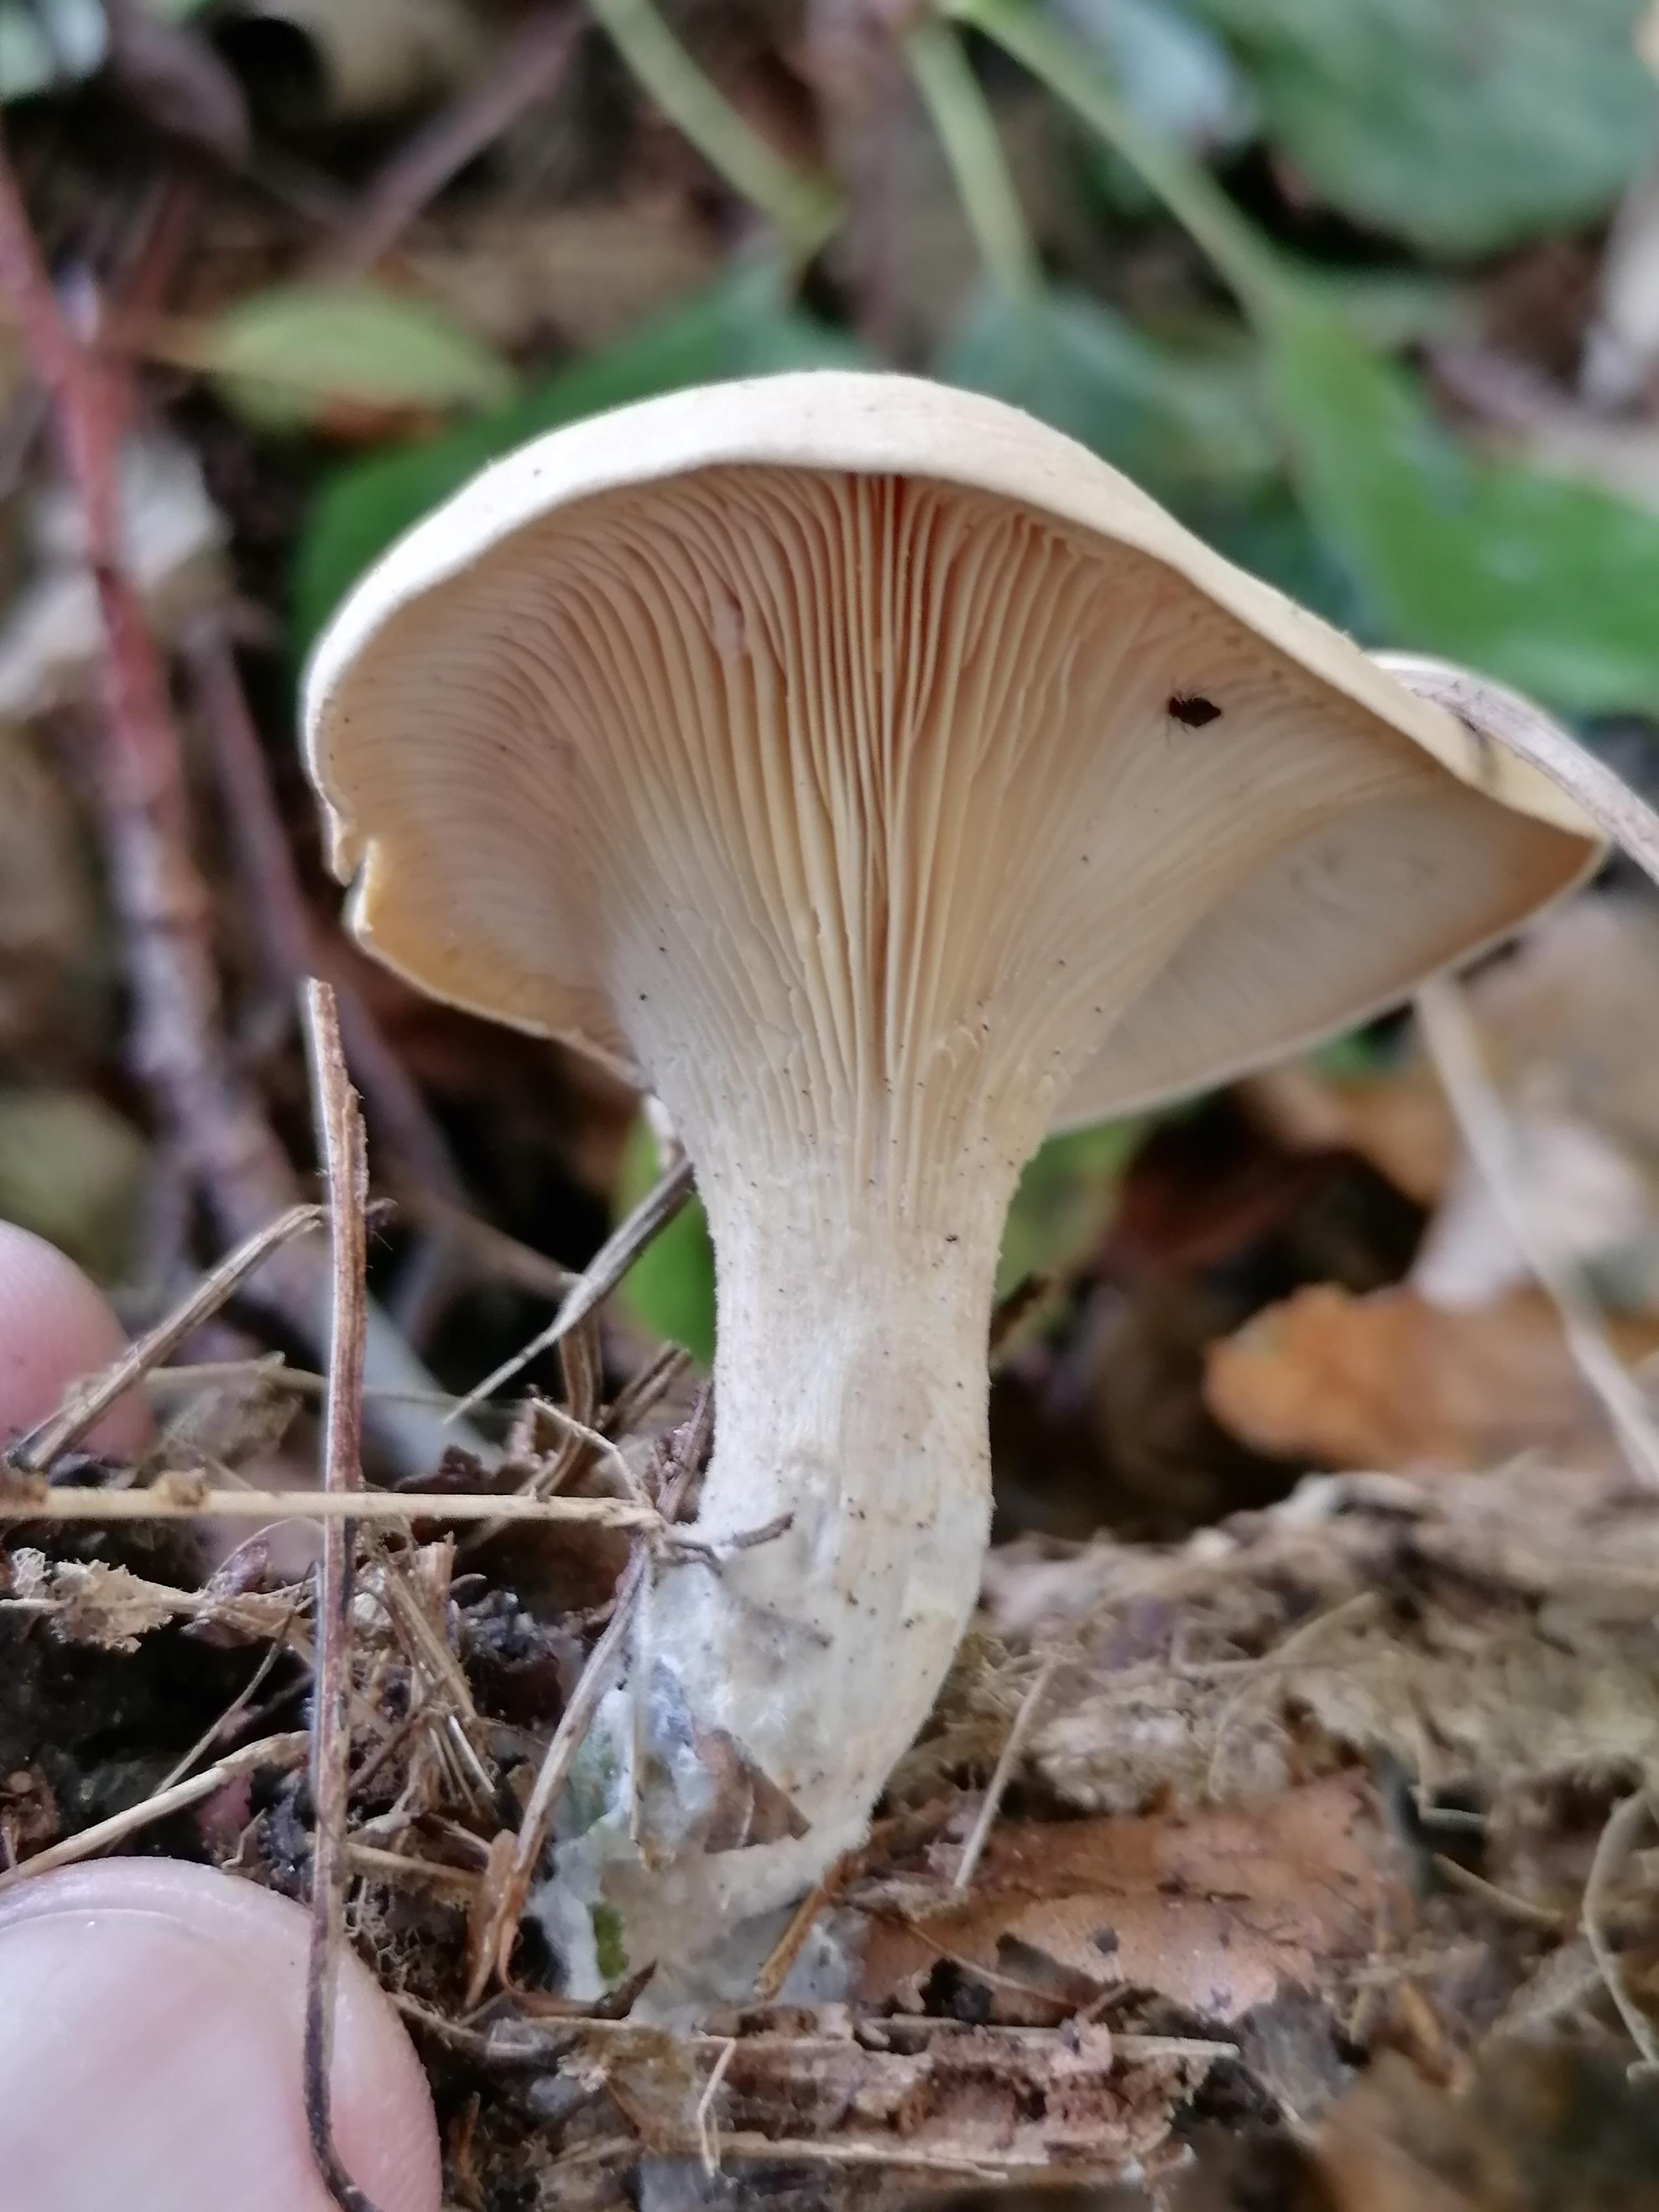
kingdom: Fungi
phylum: Basidiomycota
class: Agaricomycetes
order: Agaricales
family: Tricholomataceae
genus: Paralepista
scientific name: Paralepista
